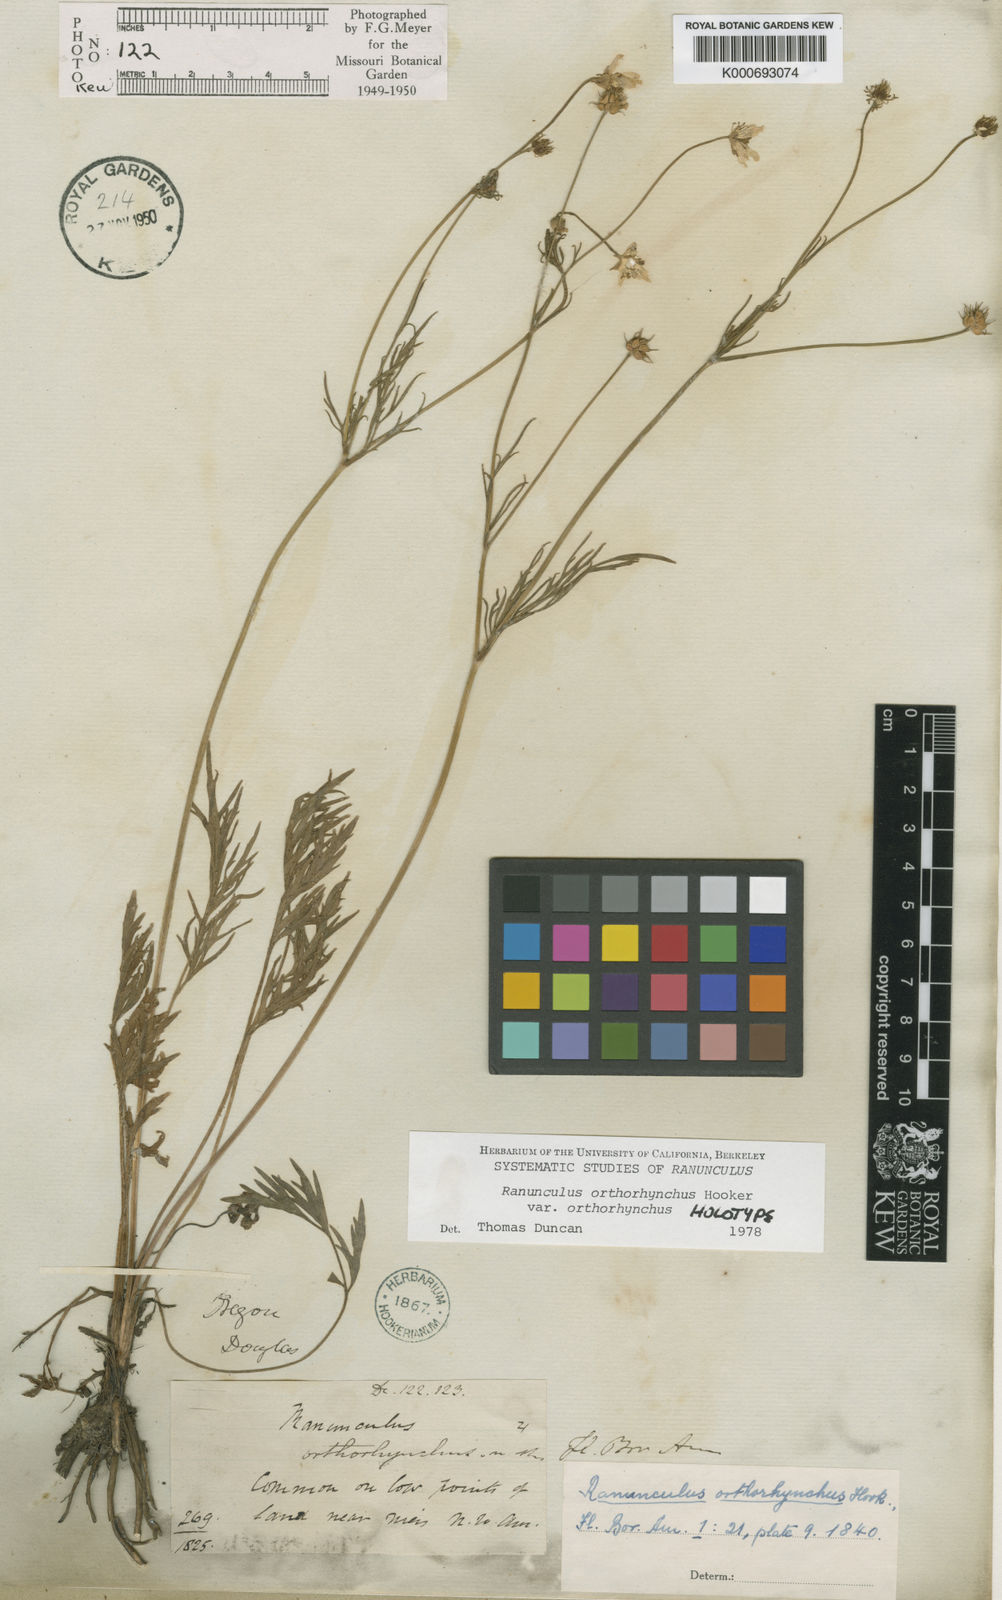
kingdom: Plantae
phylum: Tracheophyta
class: Magnoliopsida
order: Ranunculales
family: Ranunculaceae
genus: Ranunculus
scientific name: Ranunculus orthorhynchus
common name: Straight-beak buttercup
